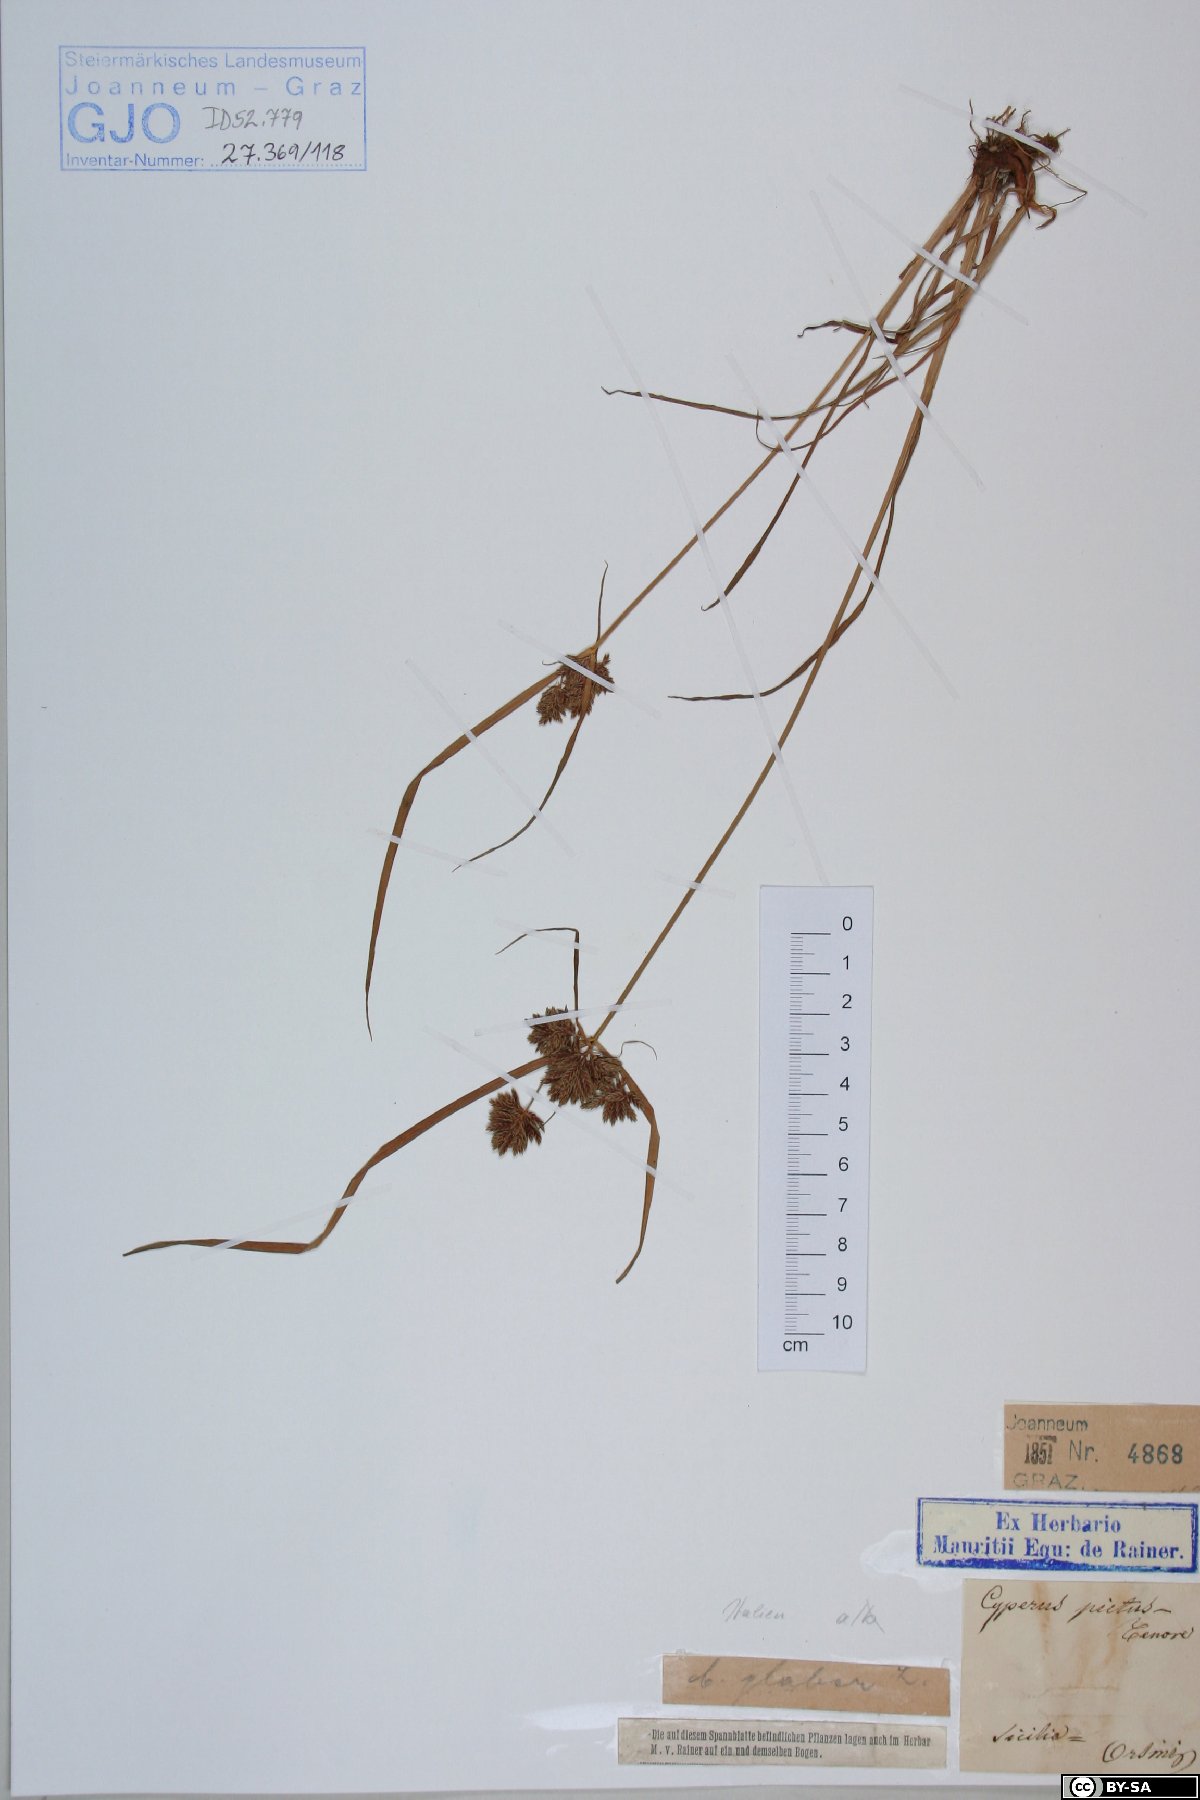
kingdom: Plantae
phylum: Tracheophyta
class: Liliopsida
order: Poales
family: Cyperaceae
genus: Cyperus
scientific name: Cyperus glaber
